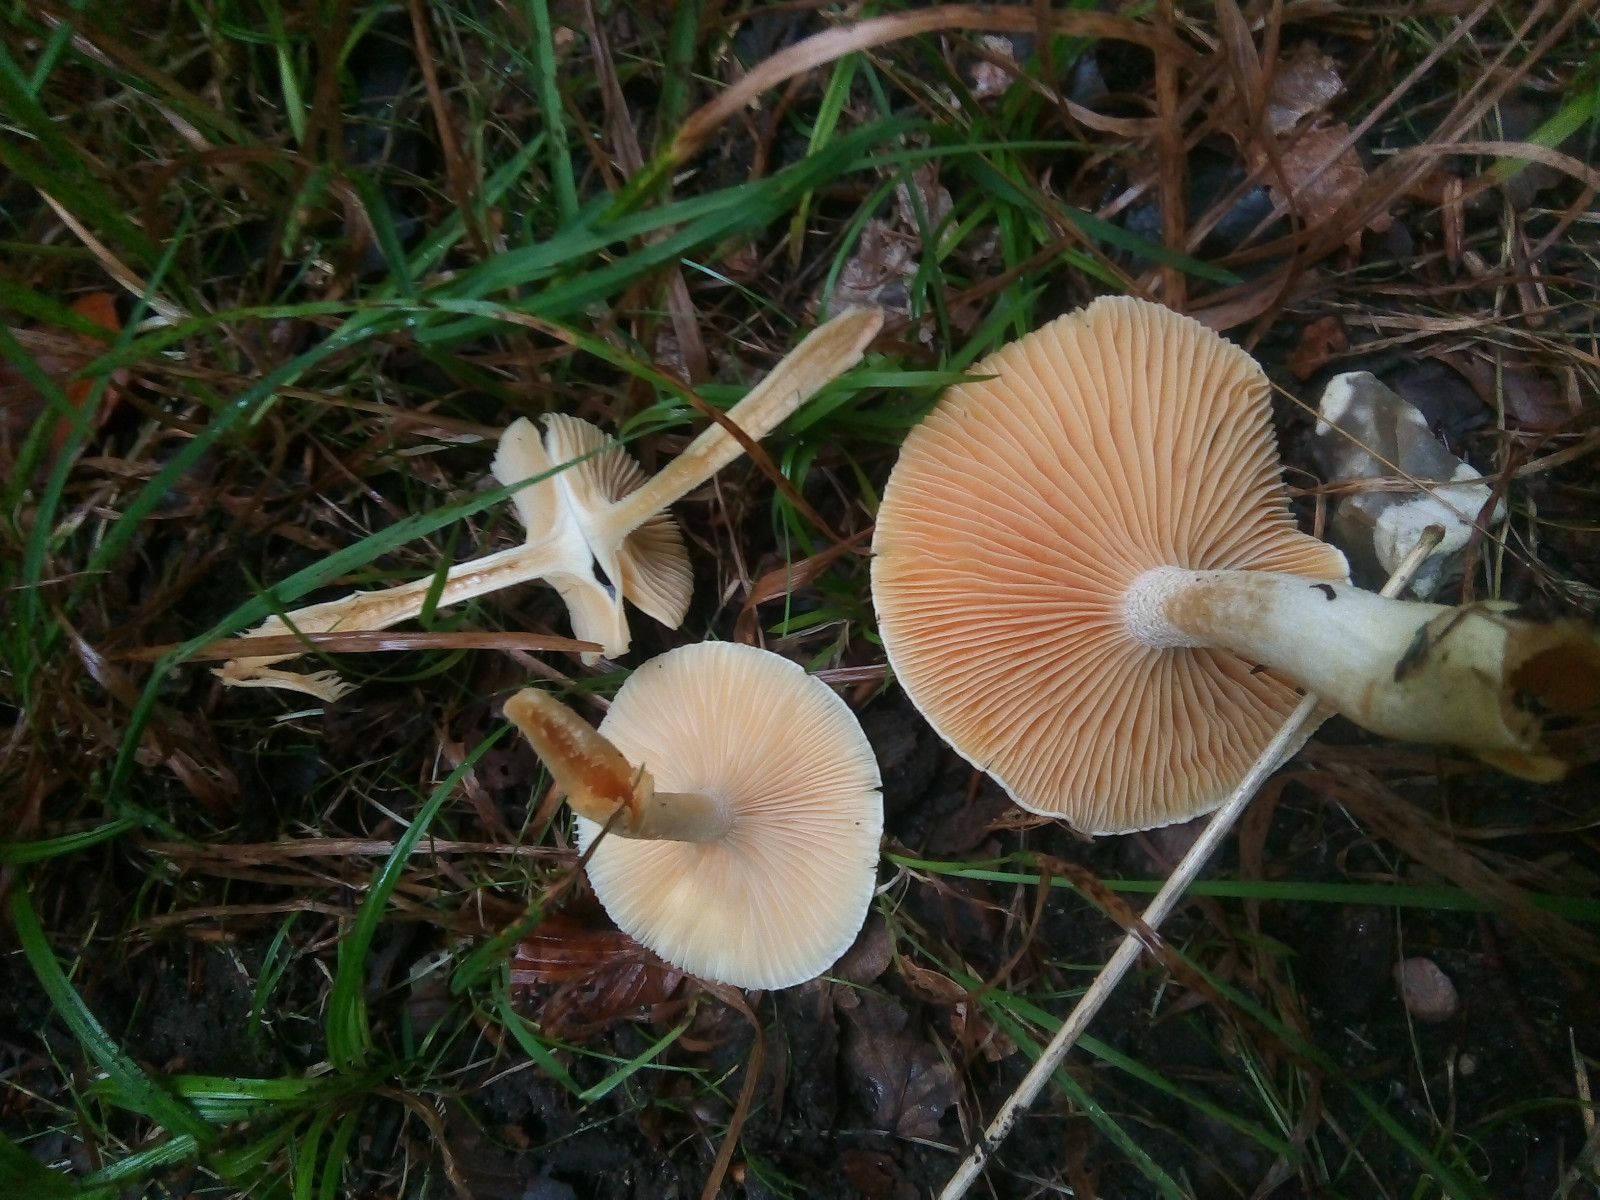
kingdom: Fungi
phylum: Basidiomycota
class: Agaricomycetes
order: Agaricales
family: Hygrophoraceae
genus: Hygrophorus
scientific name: Hygrophorus discoxanthus
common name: ildelugtende sneglehat
